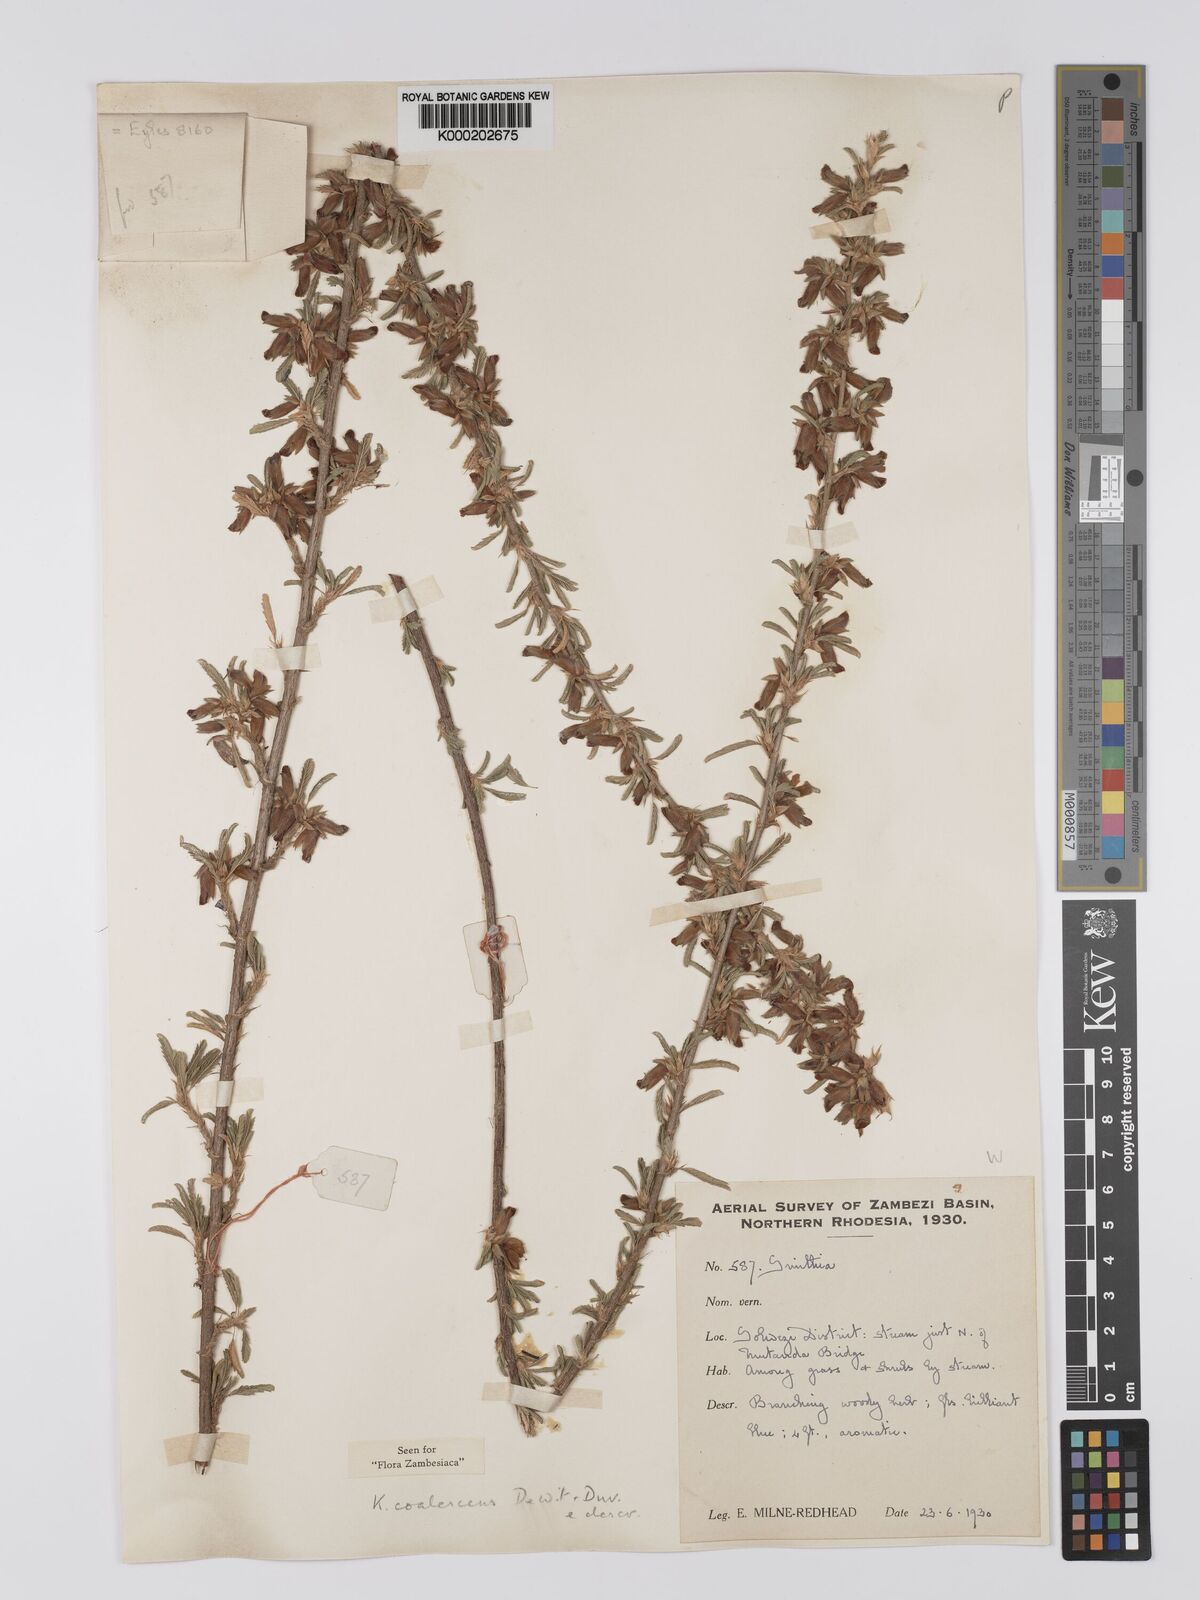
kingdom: Plantae
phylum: Tracheophyta
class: Magnoliopsida
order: Fabales
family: Fabaceae
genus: Kotschya
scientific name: Kotschya coalescens
